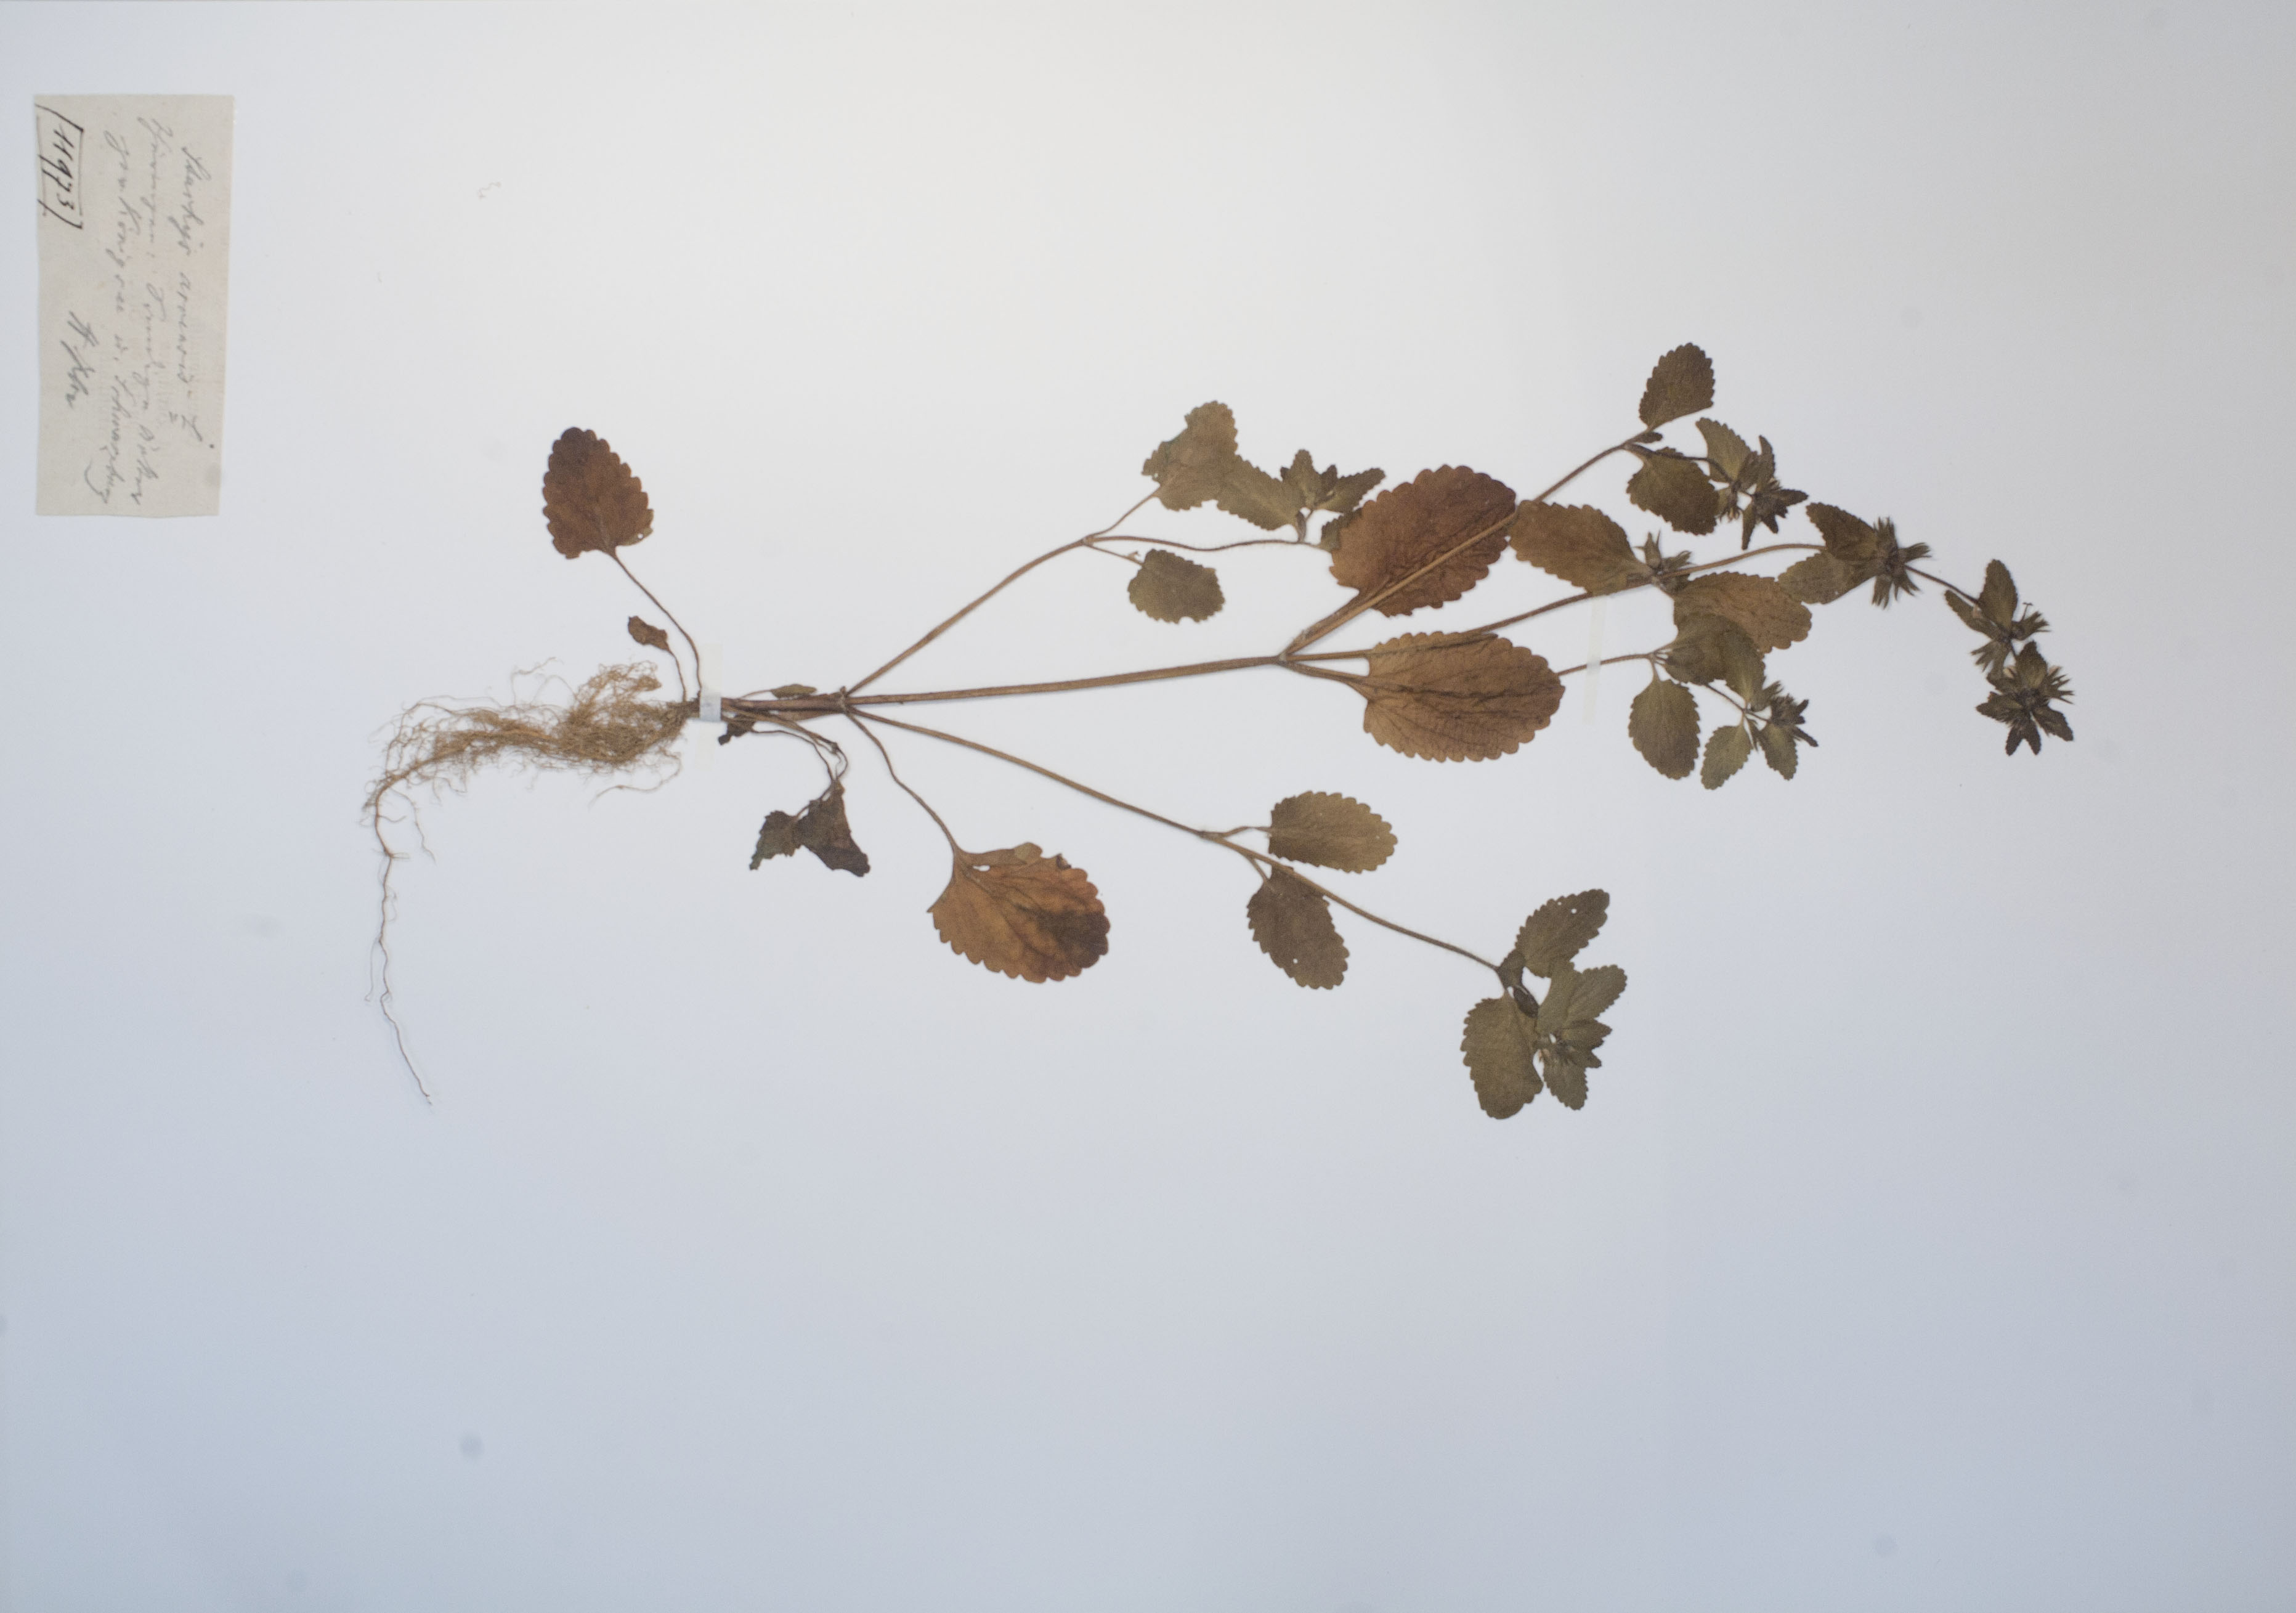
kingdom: Plantae
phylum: Tracheophyta
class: Magnoliopsida
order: Lamiales
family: Lamiaceae
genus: Stachys
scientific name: Stachys arvensis
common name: Field woundwort
